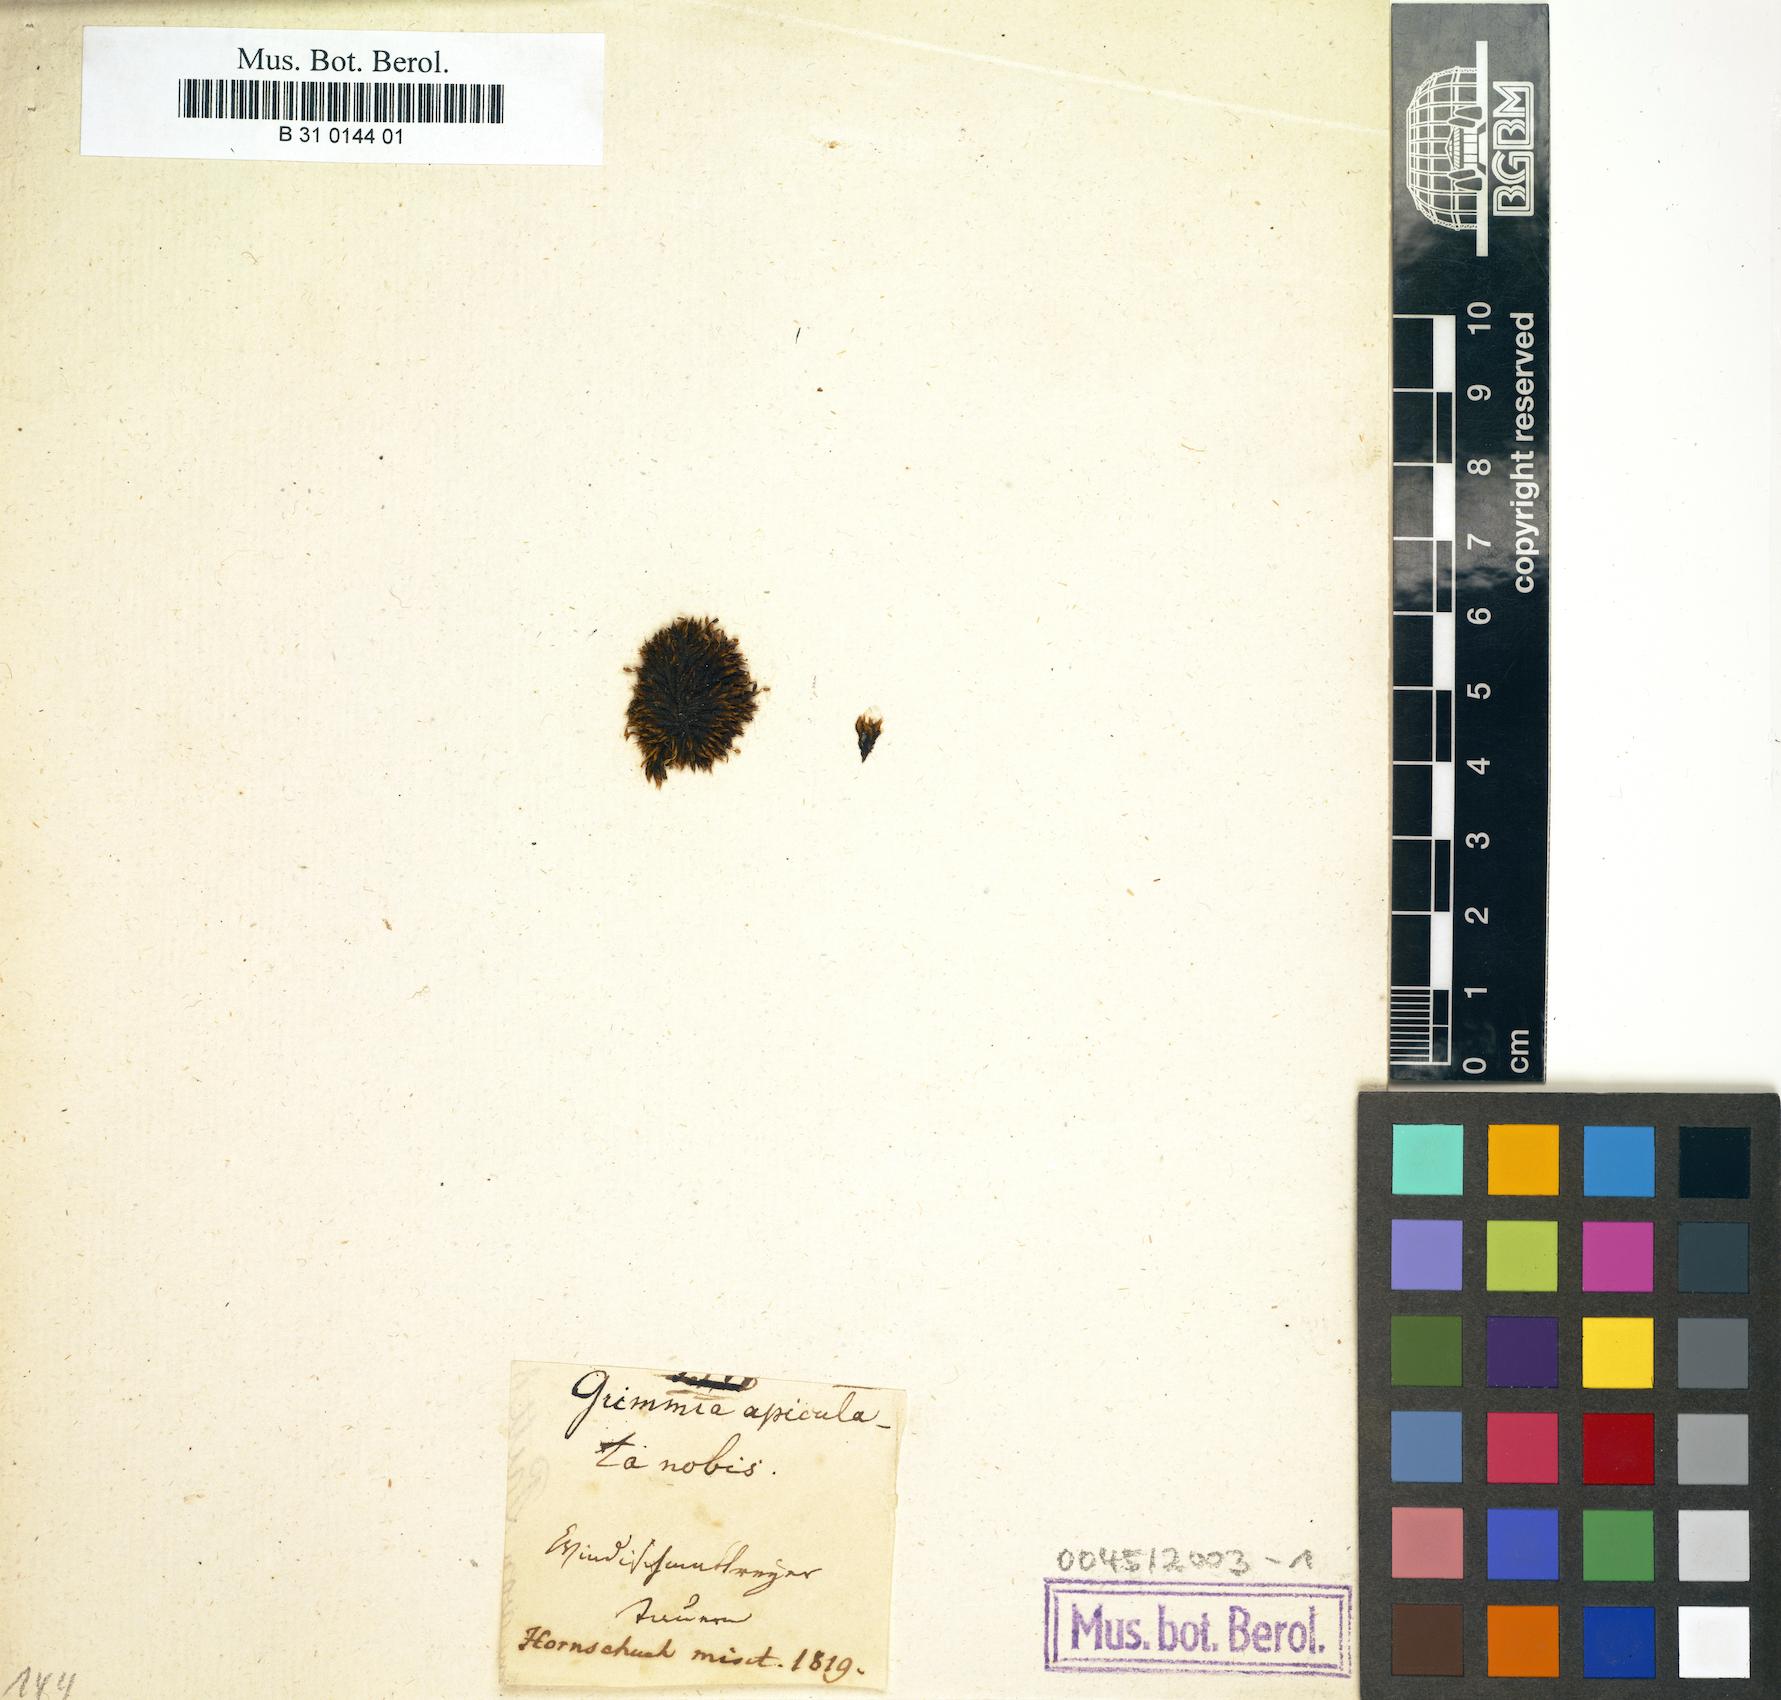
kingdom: Plantae
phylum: Bryophyta
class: Bryopsida
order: Grimmiales
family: Grimmiaceae
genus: Grimmia
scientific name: Grimmia fuscolutea
